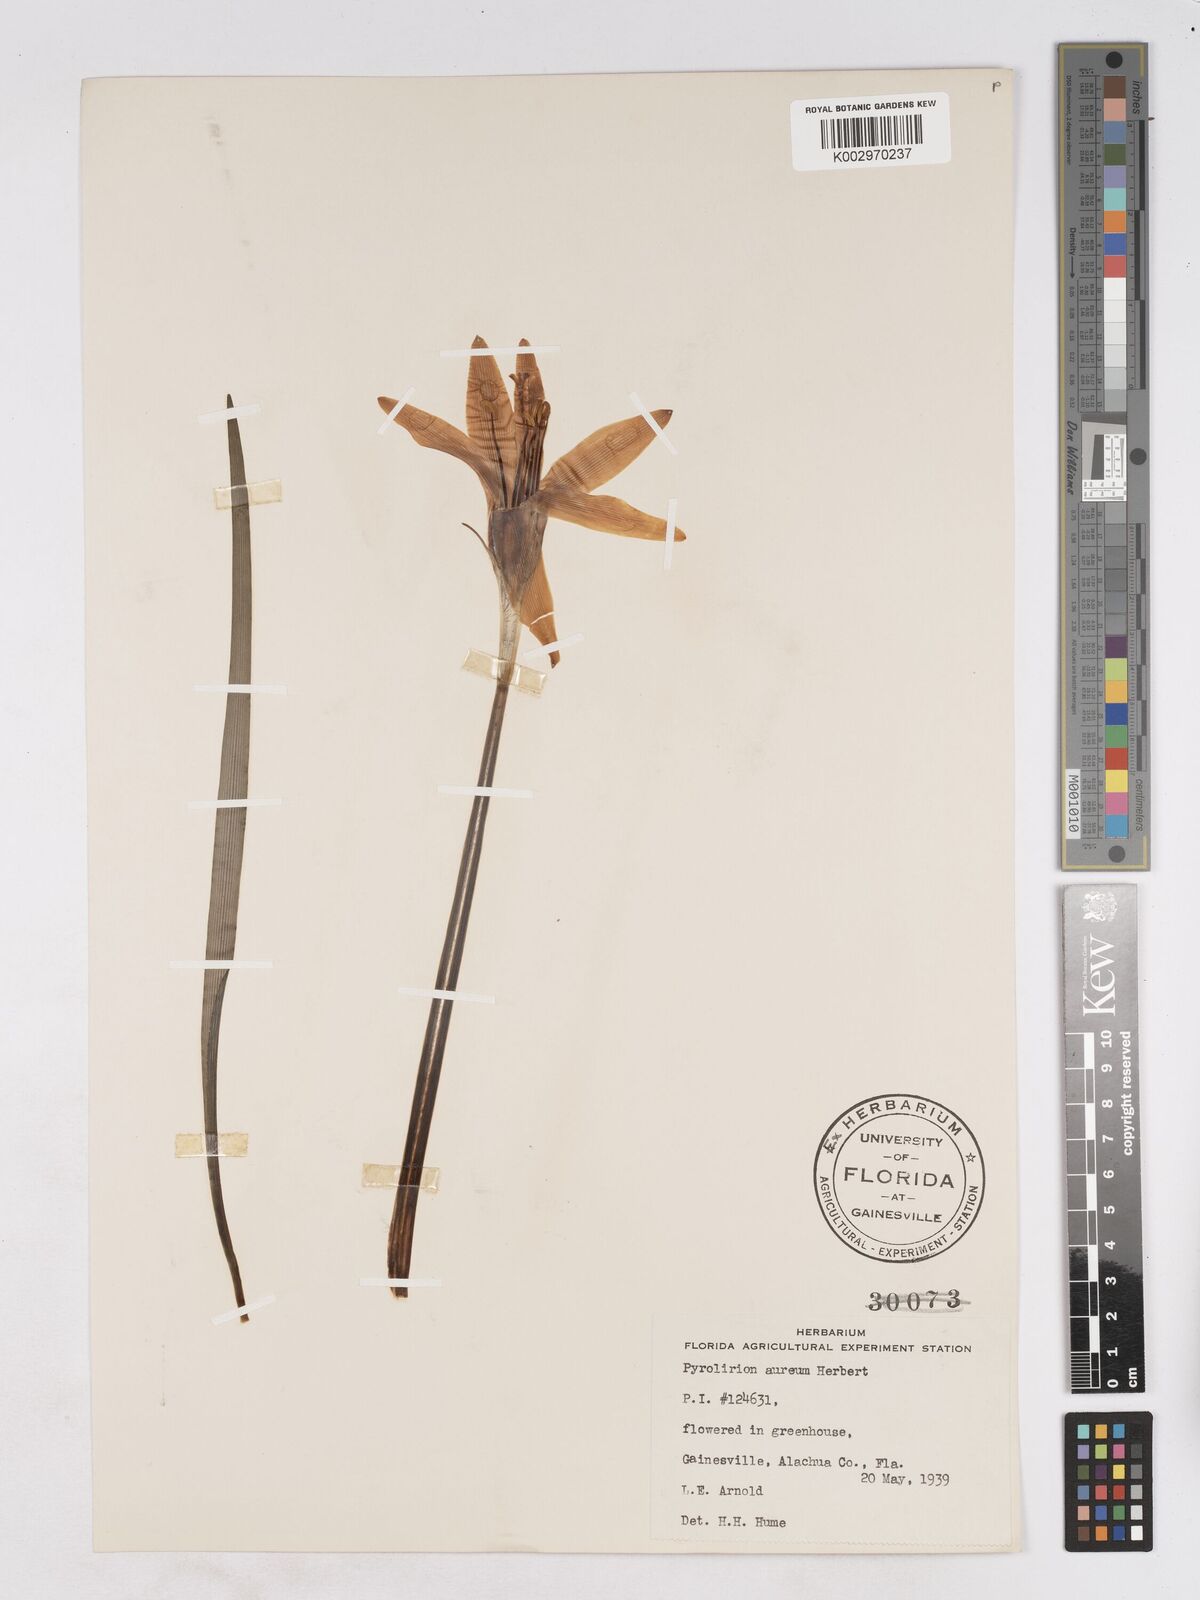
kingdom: Plantae
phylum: Tracheophyta
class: Liliopsida
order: Asparagales
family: Amaryllidaceae
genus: Pyrolirion
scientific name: Pyrolirion tubiflorum
